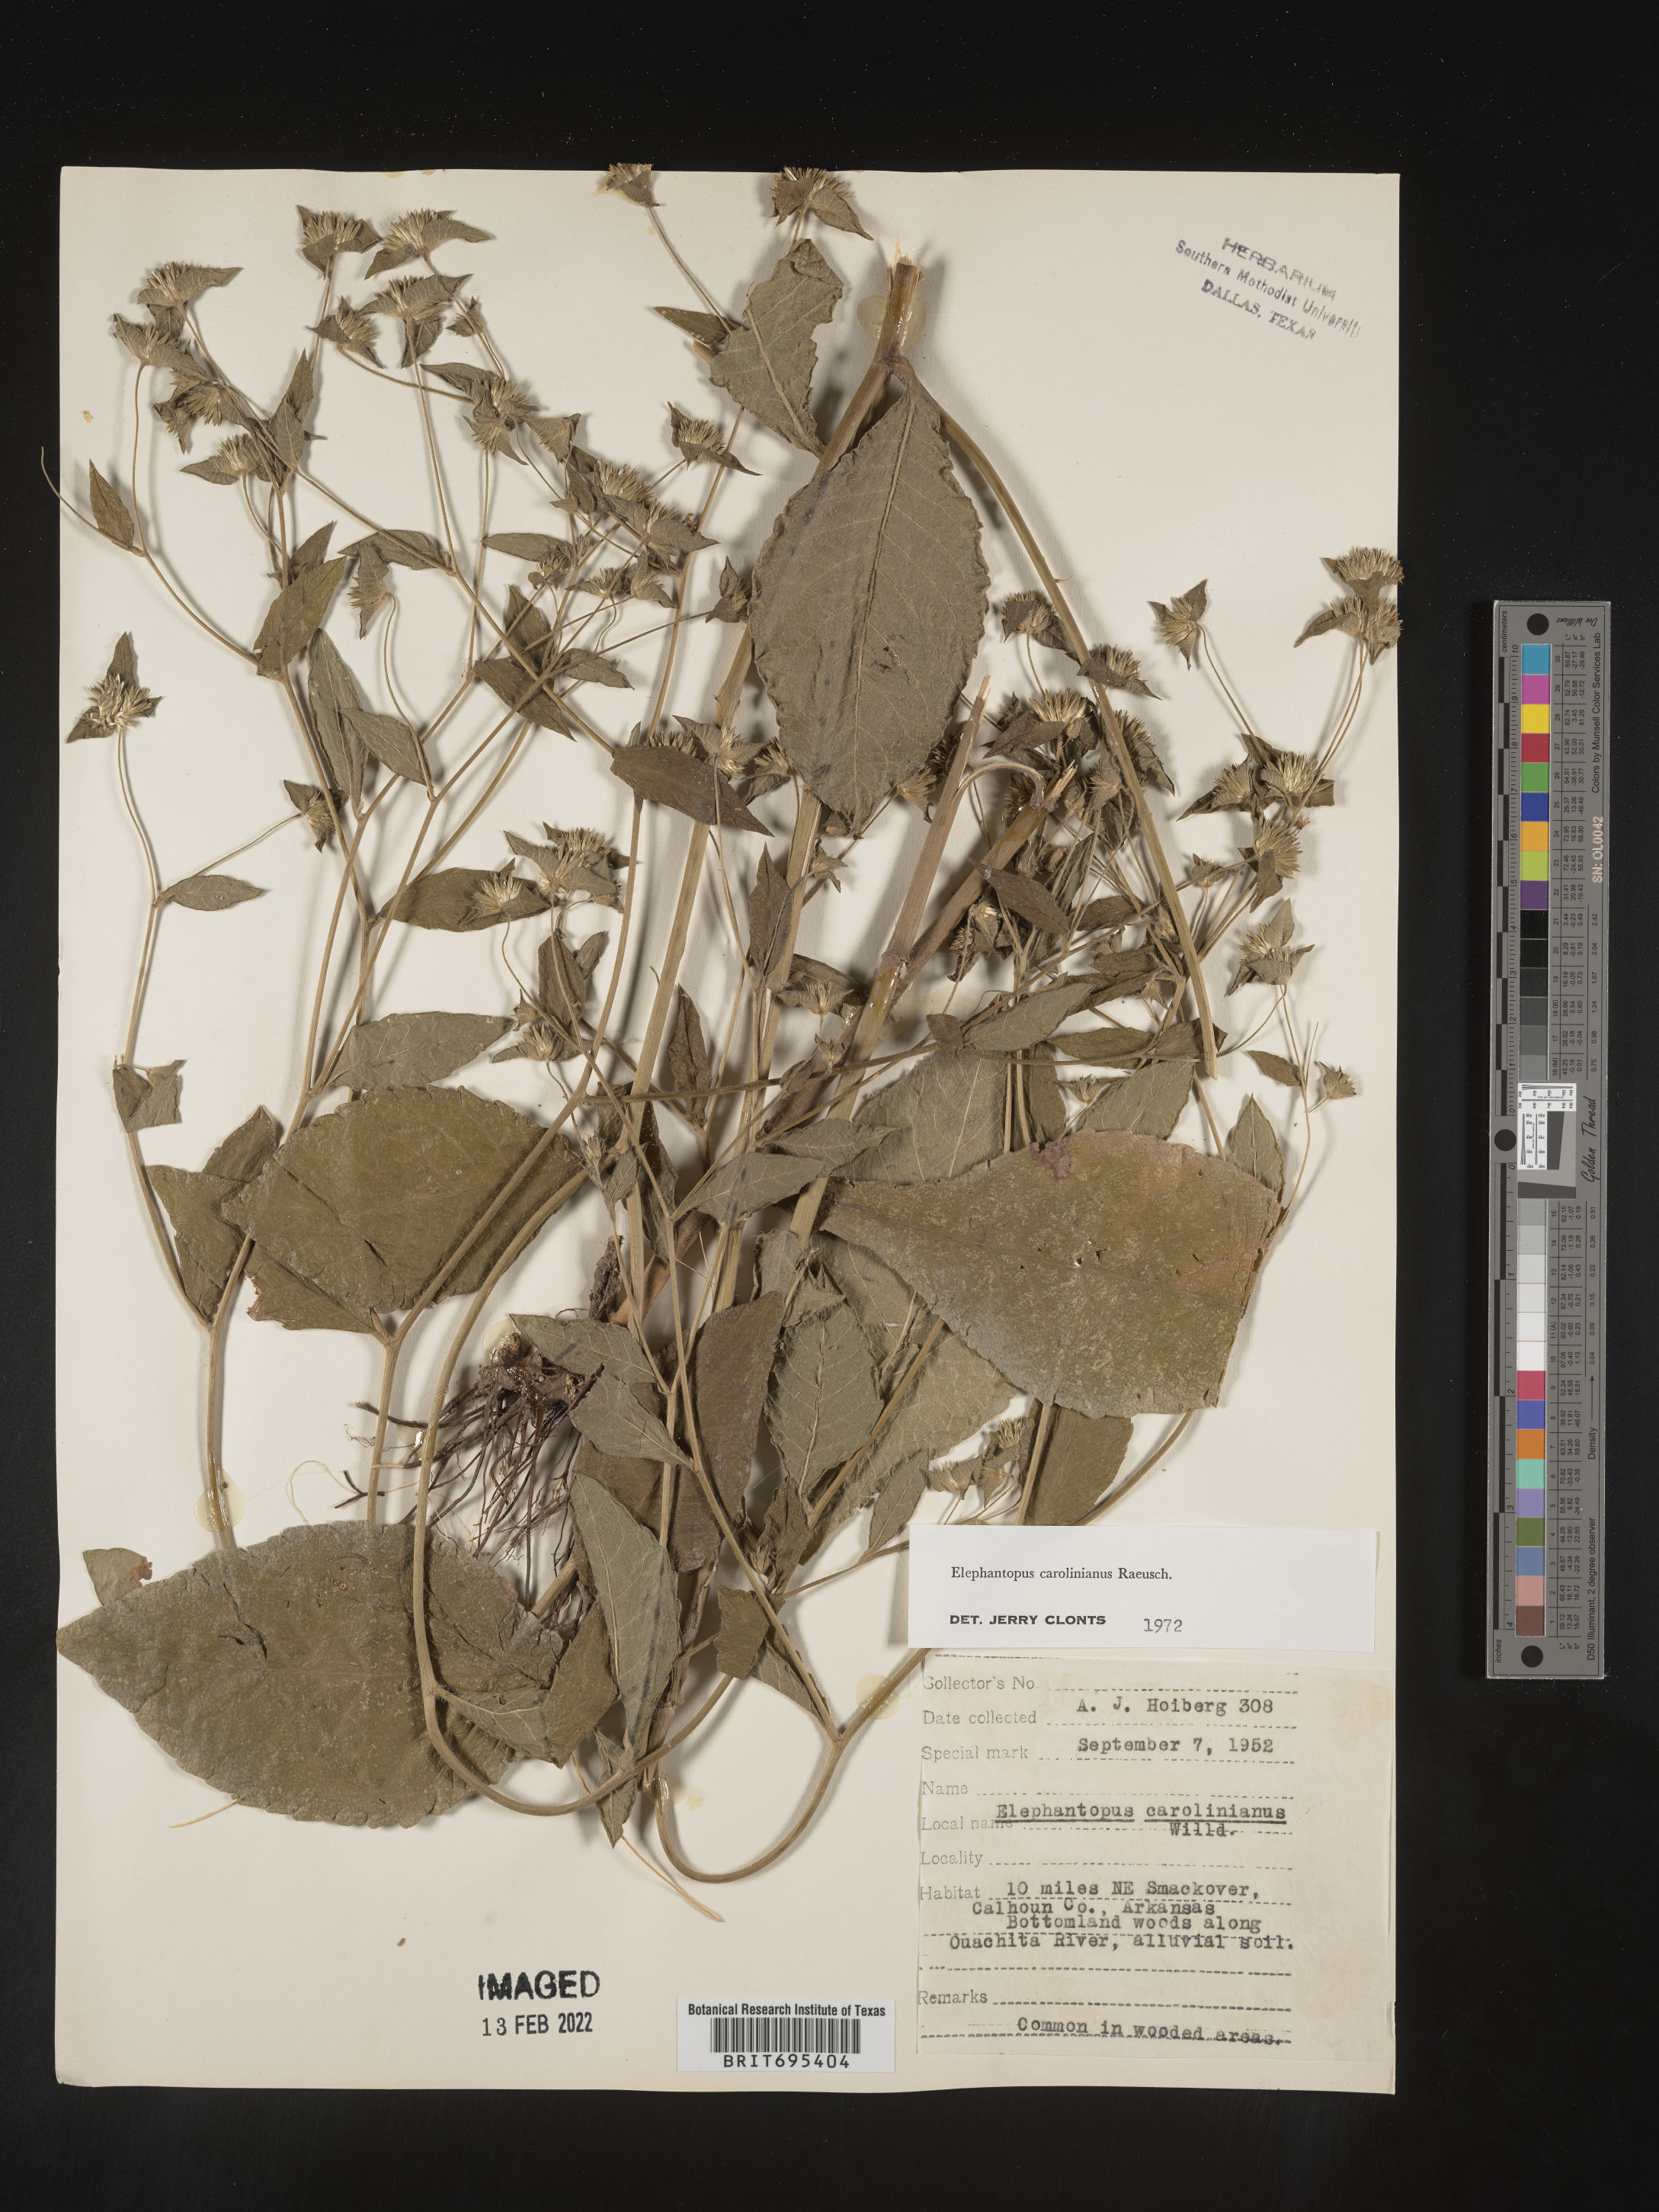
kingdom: Plantae
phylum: Tracheophyta
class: Magnoliopsida
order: Asterales
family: Asteraceae
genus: Elephantopus
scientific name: Elephantopus carolinianus
